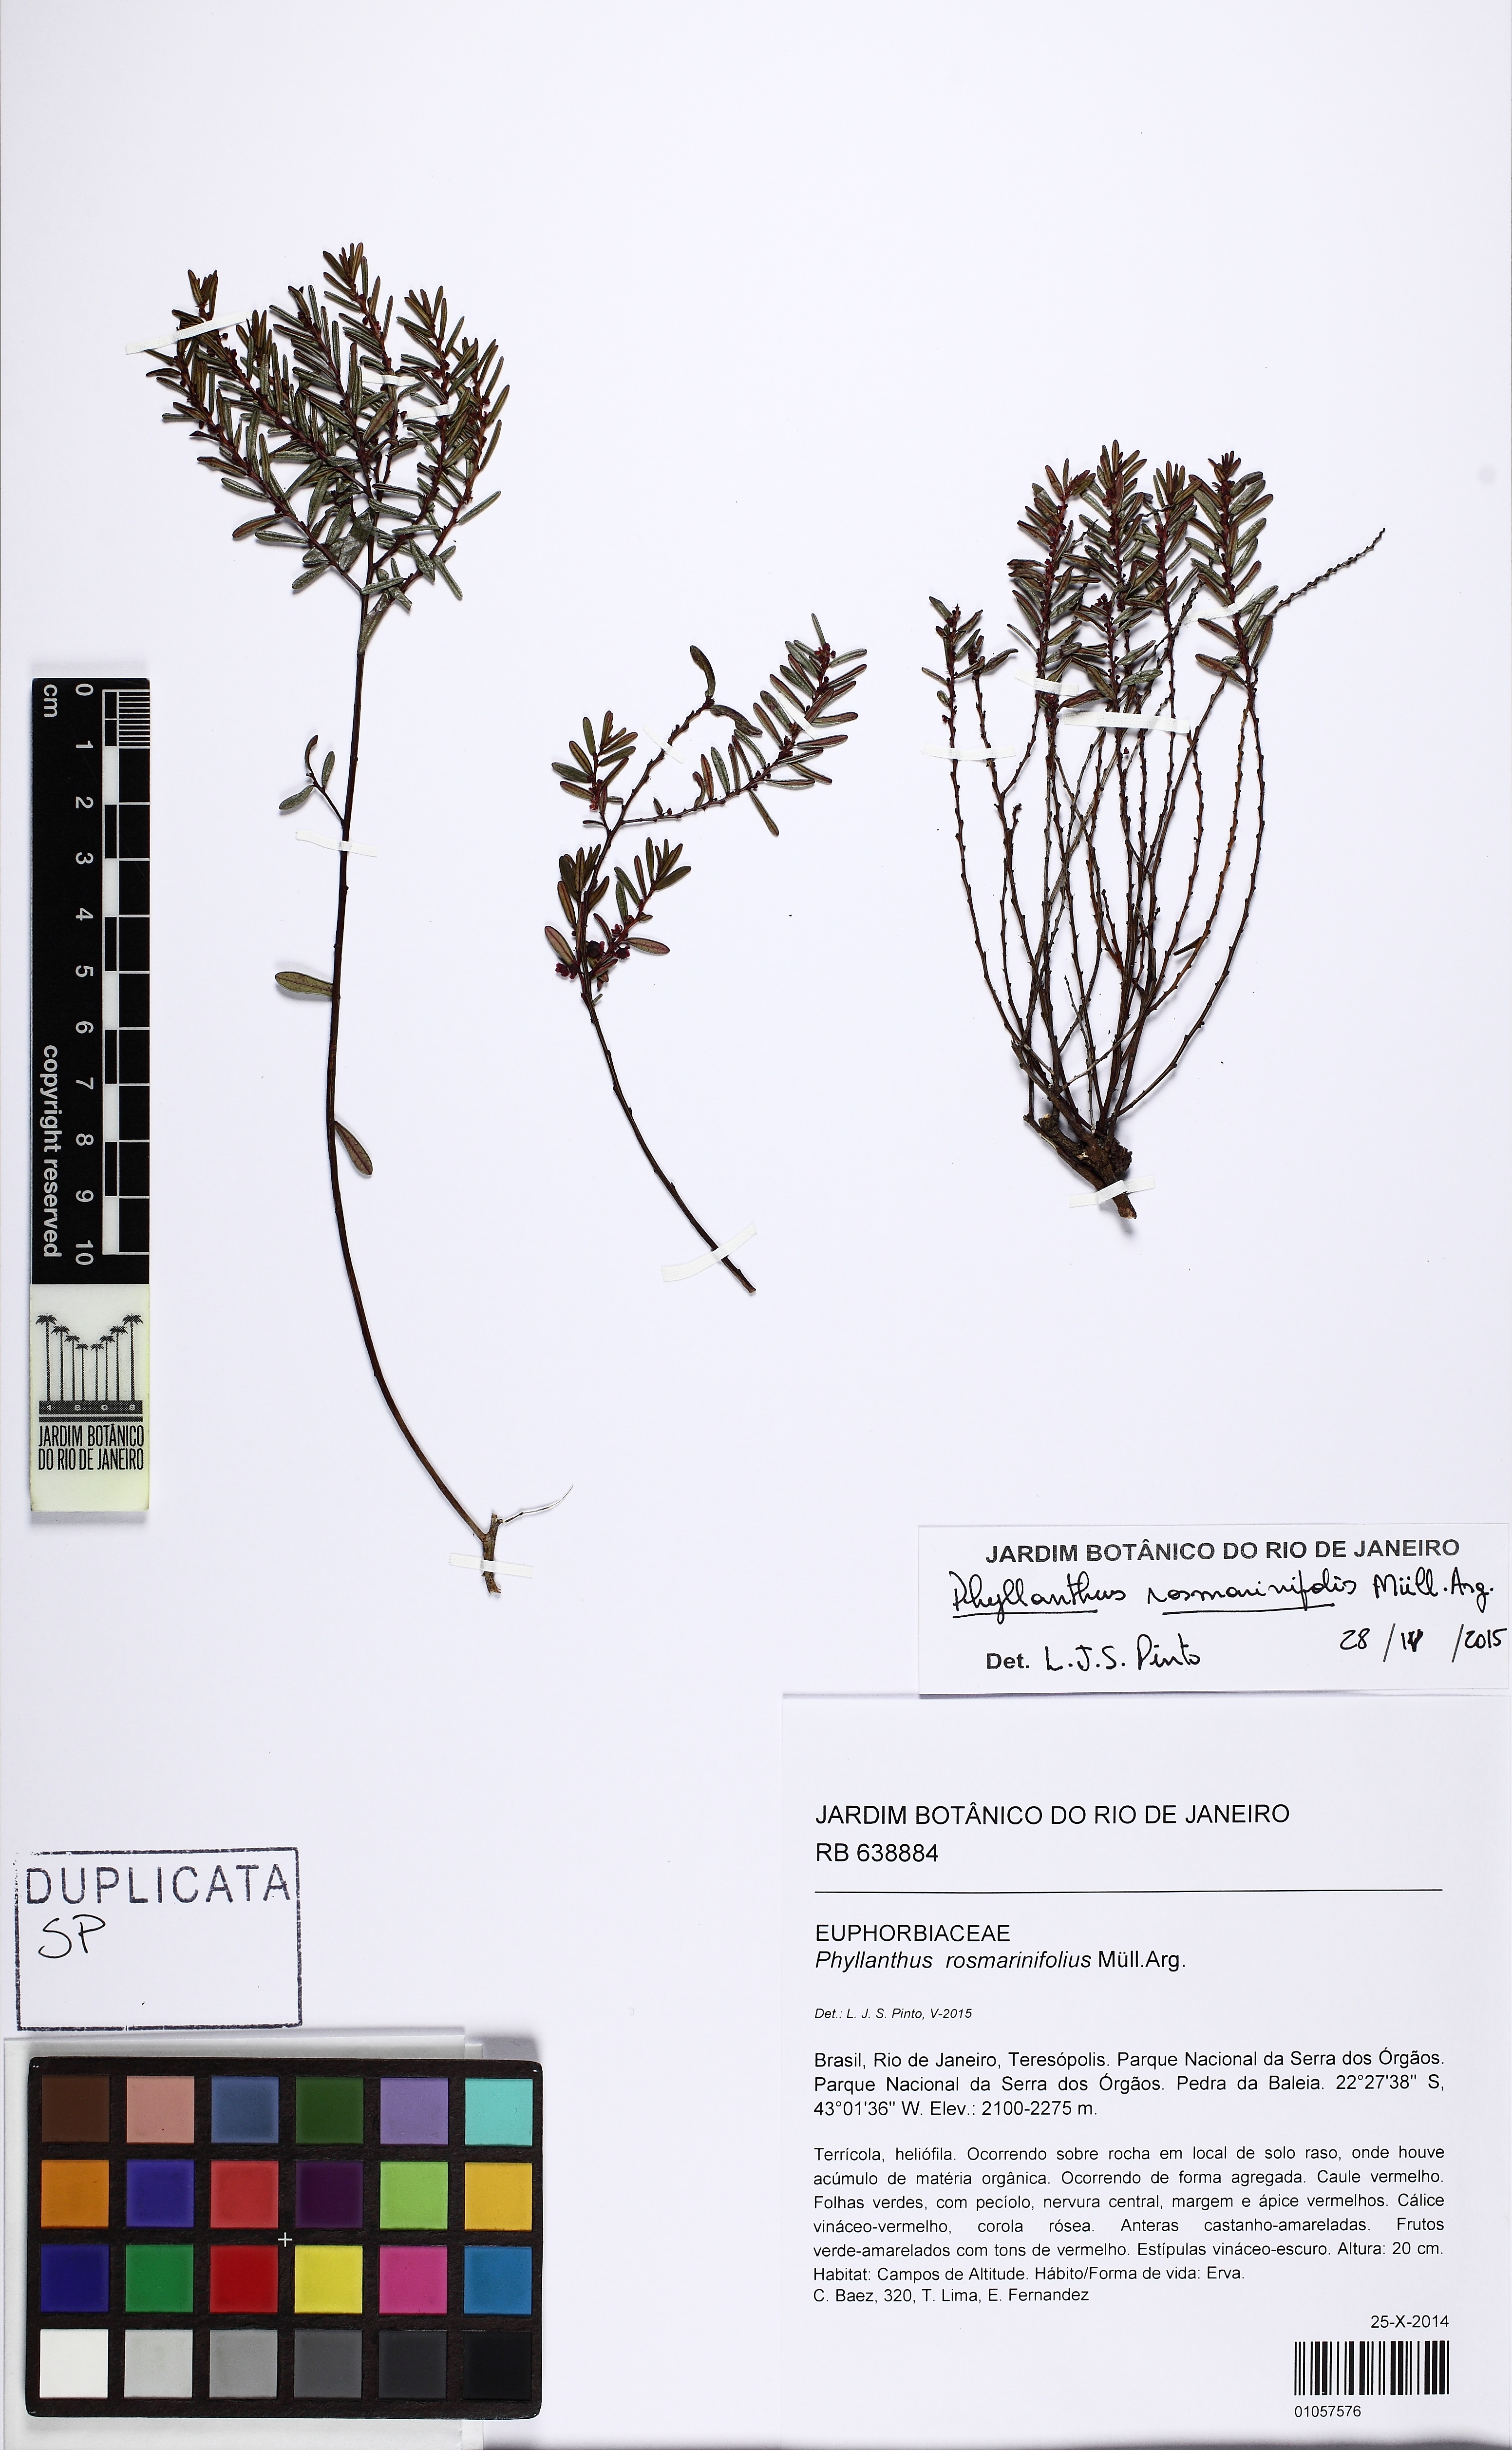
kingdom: Plantae
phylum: Tracheophyta
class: Magnoliopsida
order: Malpighiales
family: Phyllanthaceae
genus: Phyllanthus
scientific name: Phyllanthus rosmarinifolius
